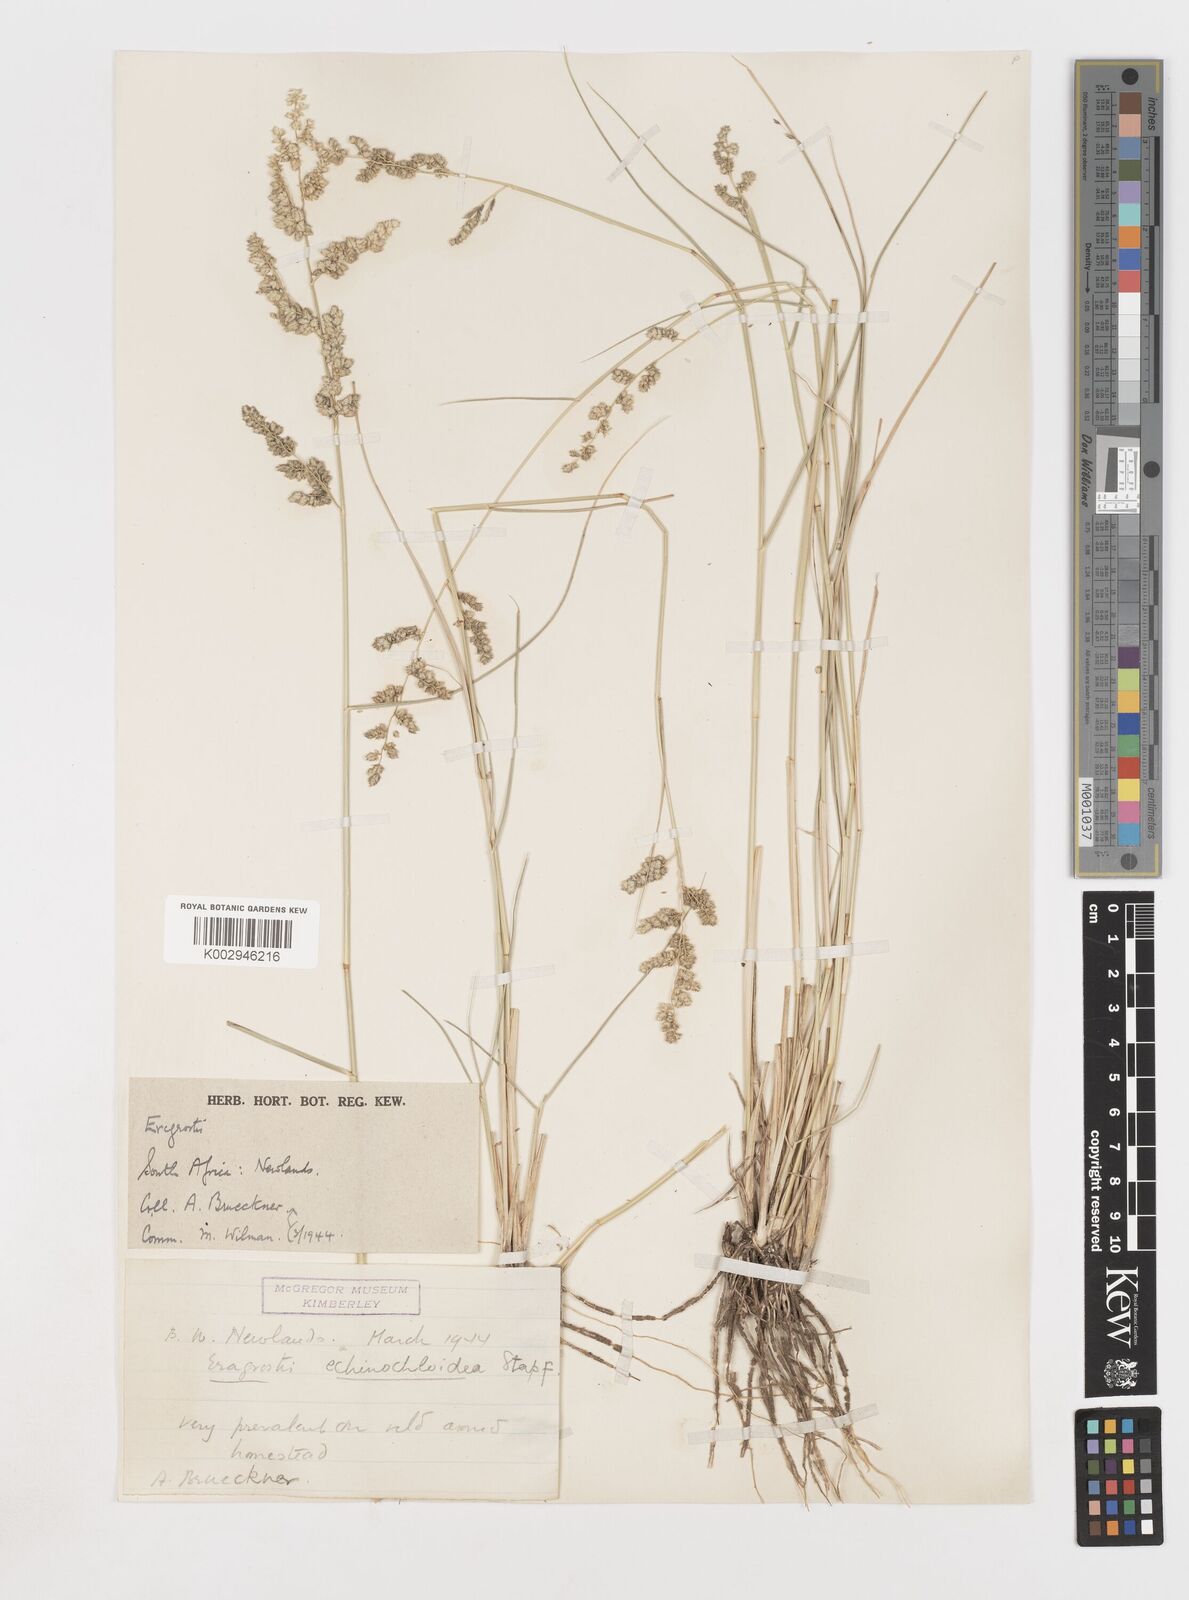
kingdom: Plantae
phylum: Tracheophyta
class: Liliopsida
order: Poales
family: Poaceae
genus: Eragrostis
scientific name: Eragrostis echinochloidea
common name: African lovegrass
